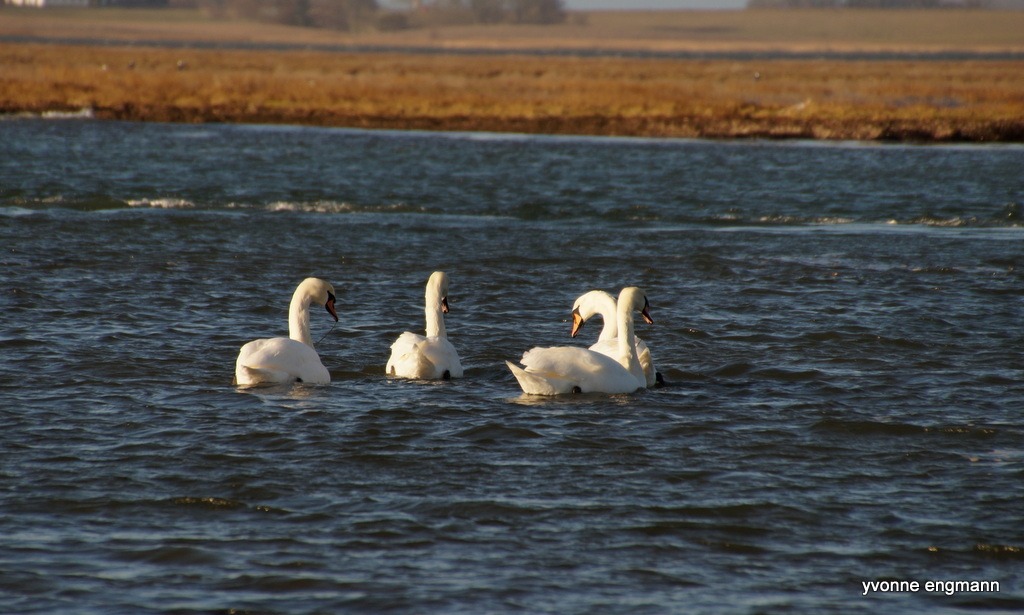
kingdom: Animalia
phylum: Chordata
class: Aves
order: Anseriformes
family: Anatidae
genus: Cygnus
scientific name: Cygnus olor
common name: Knopsvane
